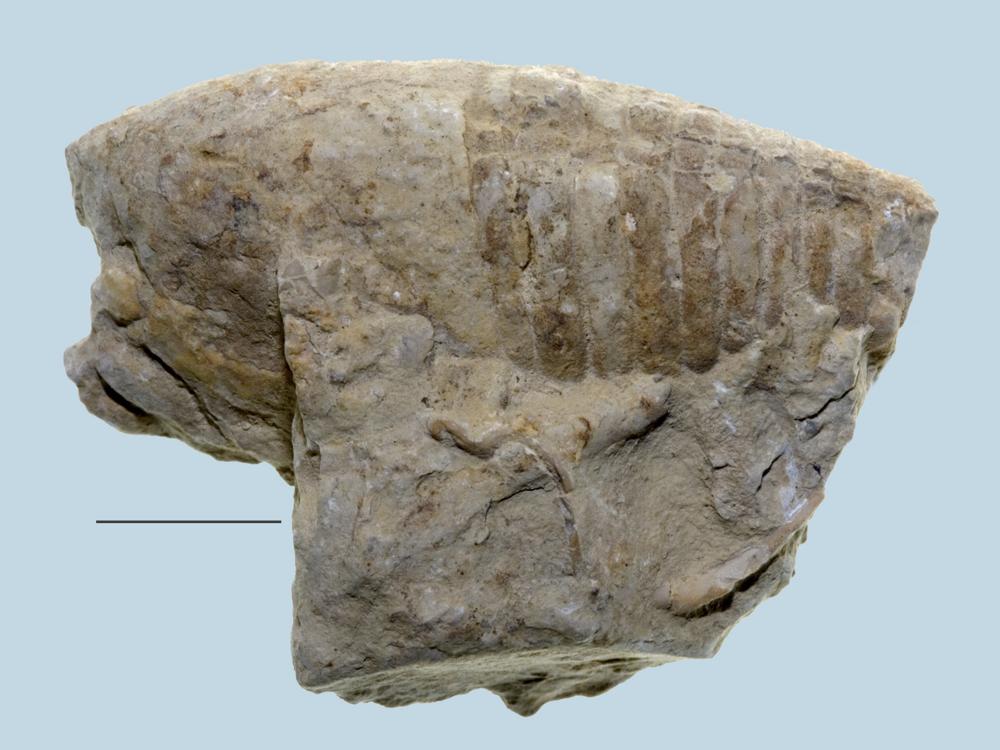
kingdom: Animalia
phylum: Mollusca
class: Cephalopoda
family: Poterioceratidae
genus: Gomphoceras
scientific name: Gomphoceras
